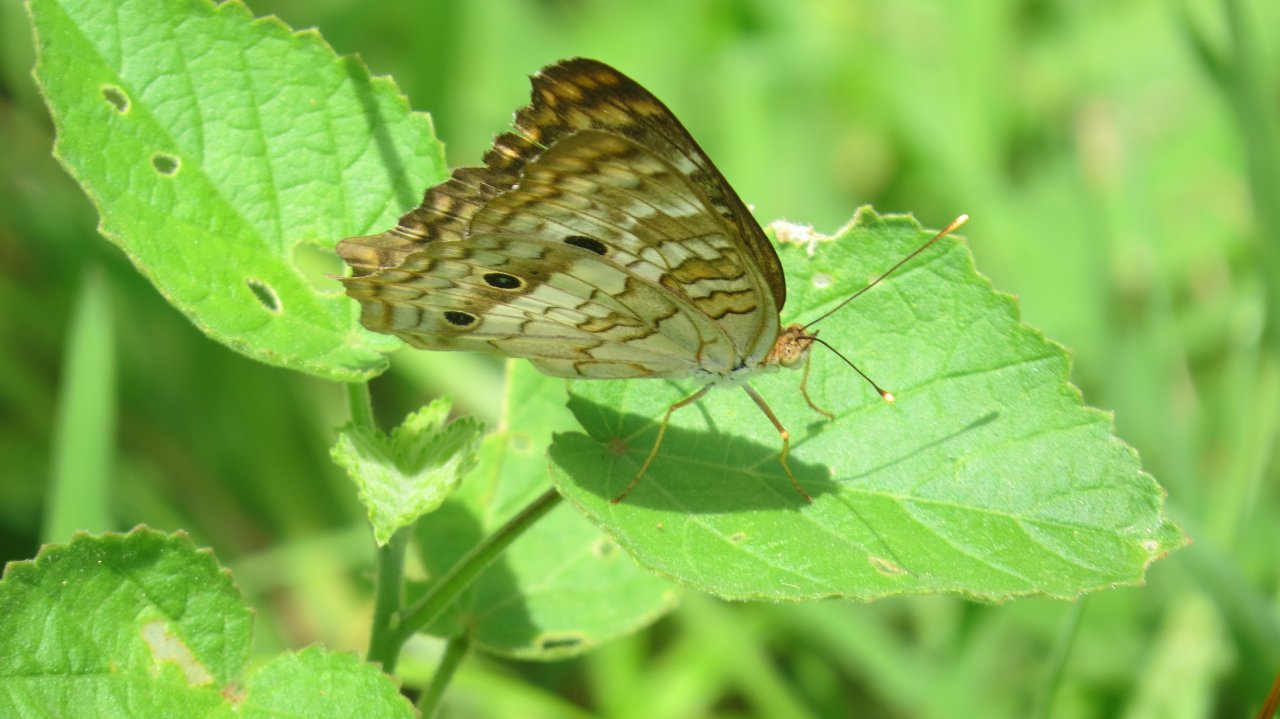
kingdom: Animalia
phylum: Arthropoda
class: Insecta
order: Lepidoptera
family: Nymphalidae
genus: Anartia
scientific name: Anartia jatrophae
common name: White Peacock
